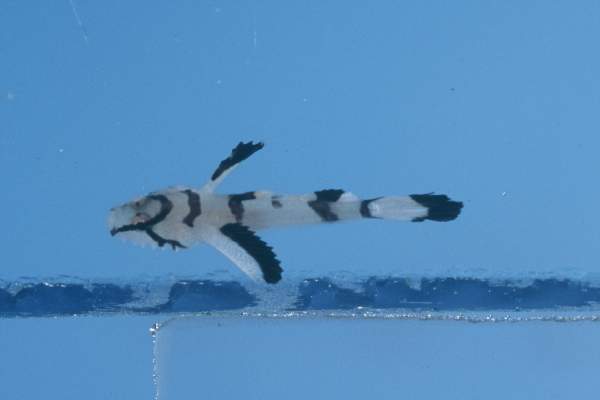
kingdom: Animalia
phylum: Chordata
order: Perciformes
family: Gobiidae
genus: Callogobius
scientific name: Callogobius plumatus
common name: Feather goby
